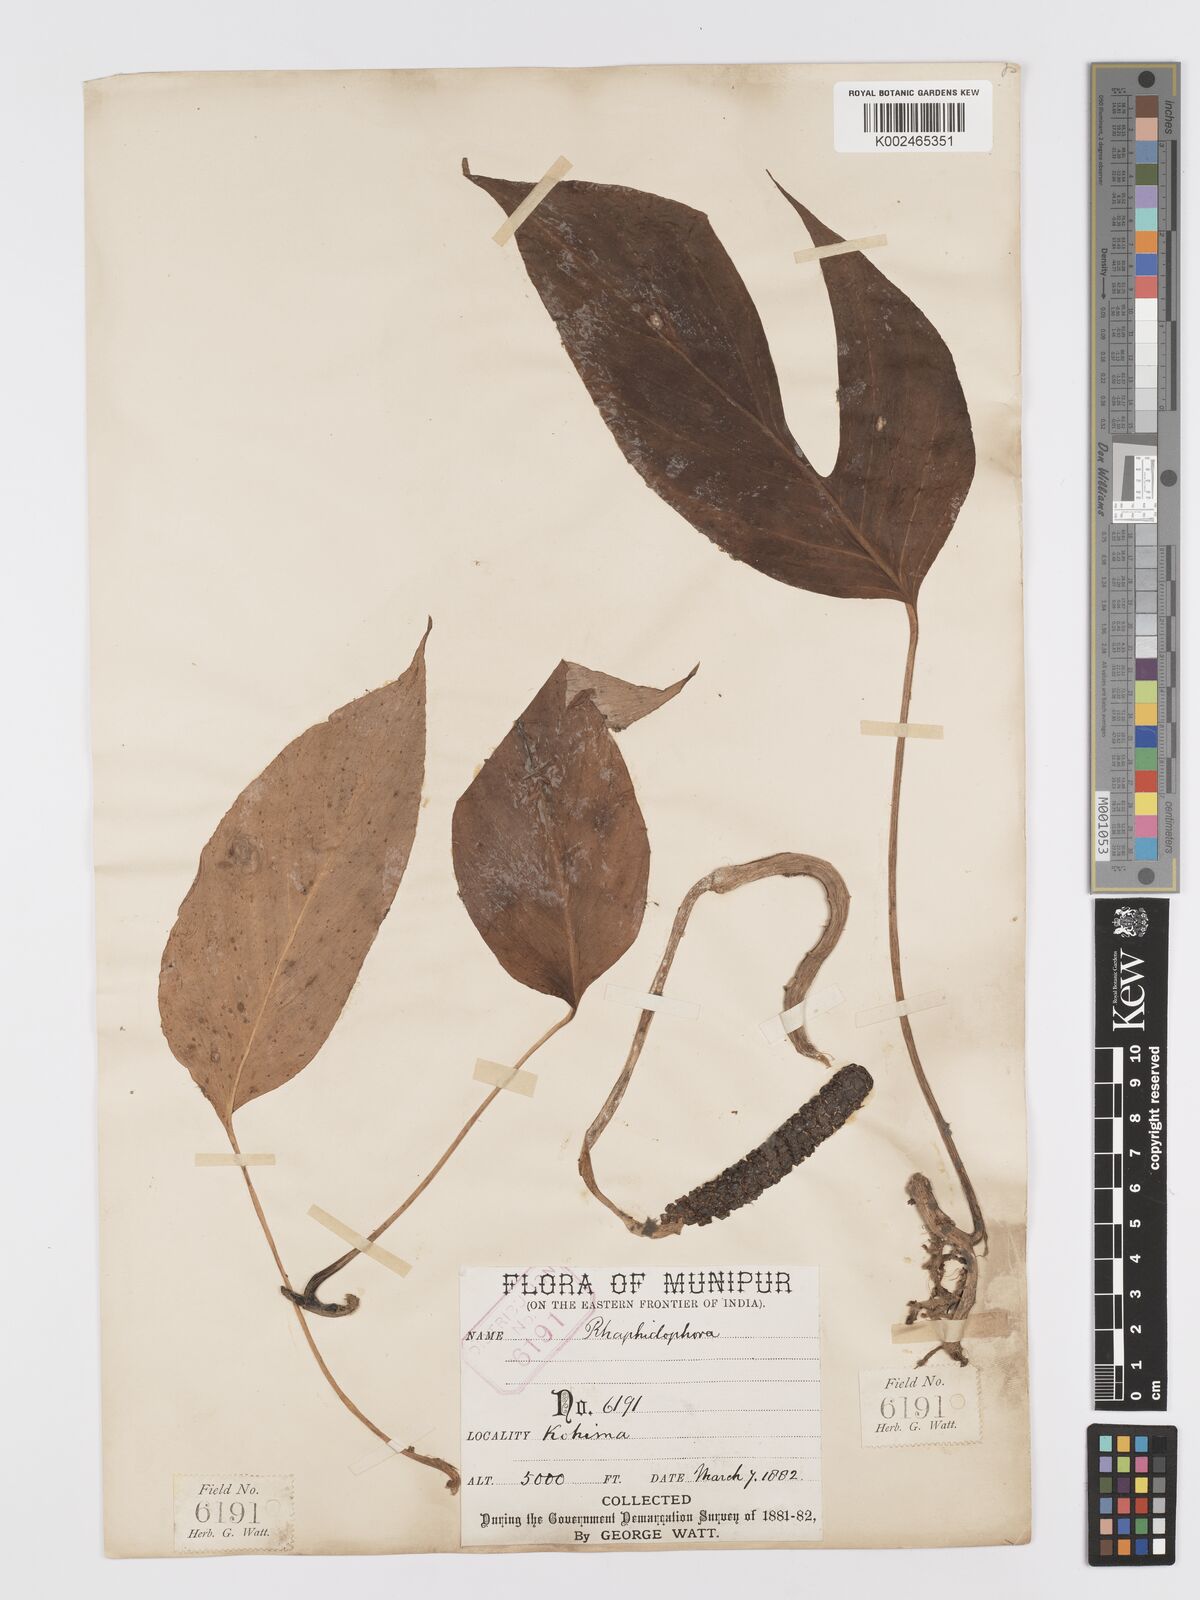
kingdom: Plantae
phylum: Tracheophyta
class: Liliopsida
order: Alismatales
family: Araceae
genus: Rhaphidophora
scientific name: Rhaphidophora glauca
